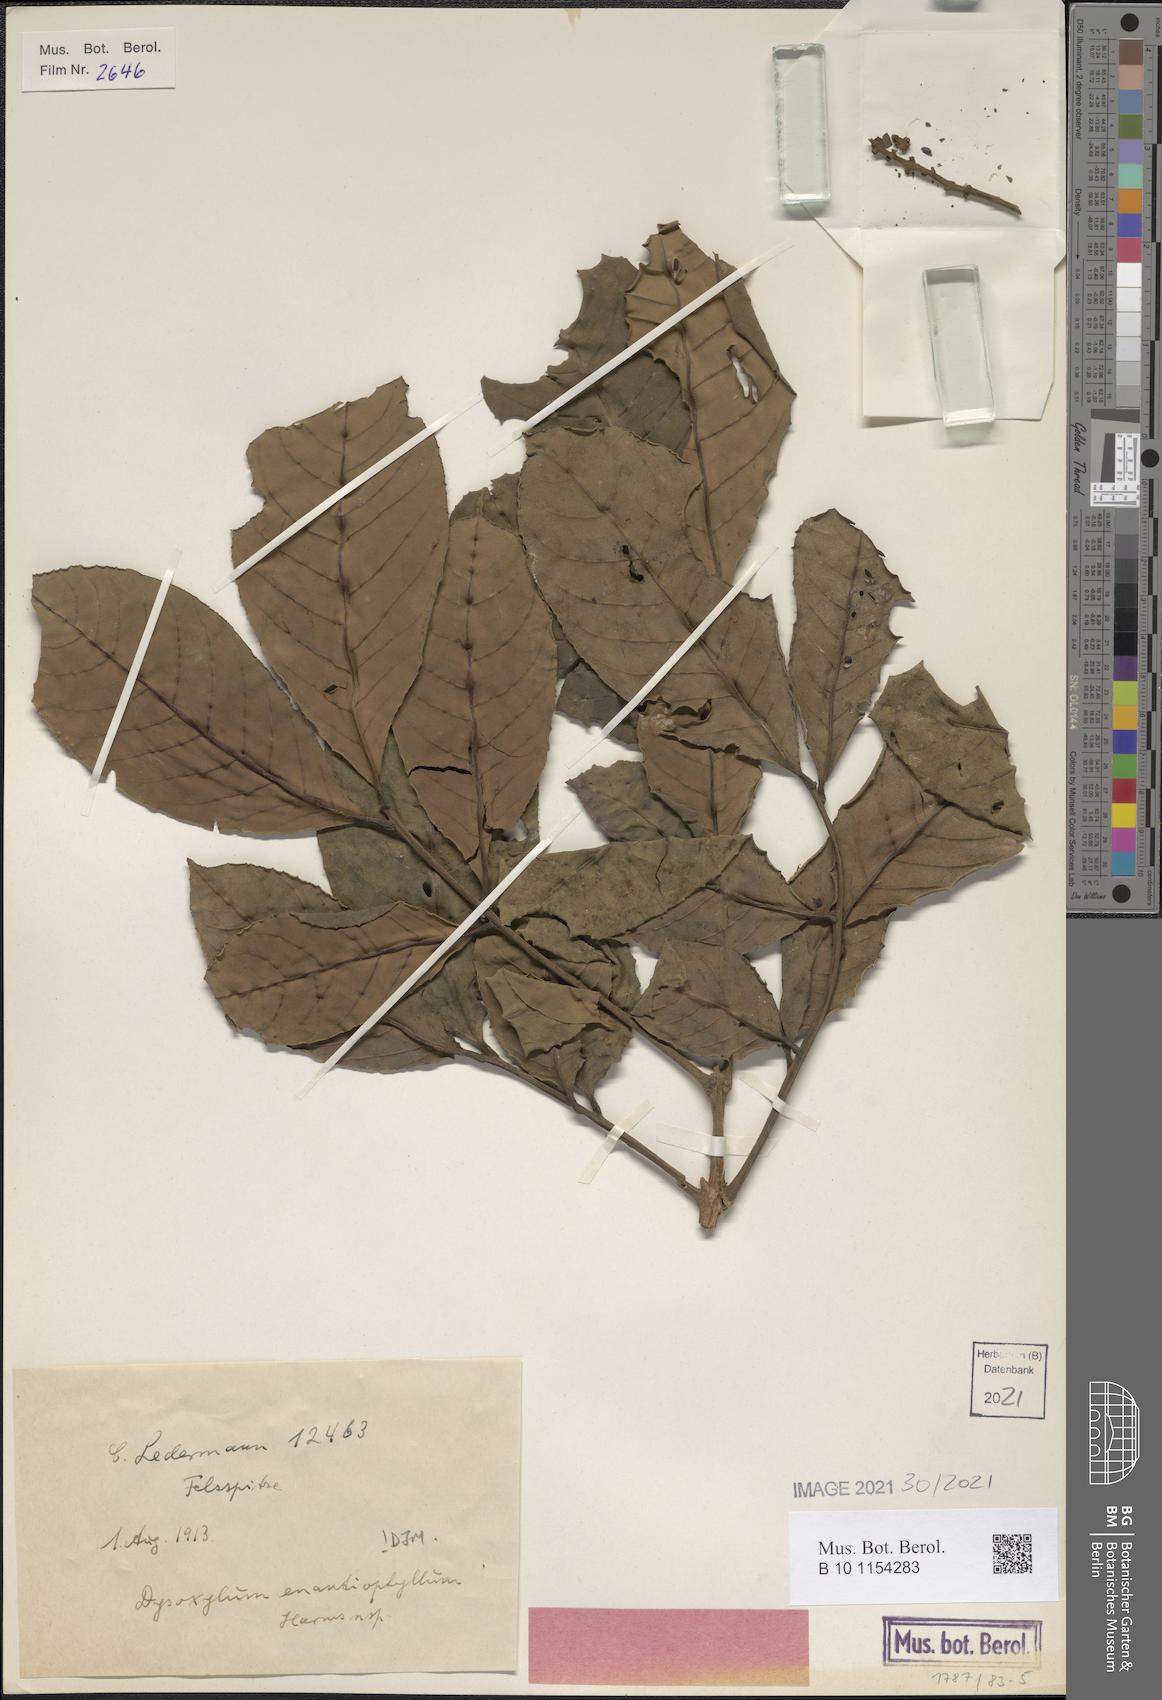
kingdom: Plantae
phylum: Tracheophyta
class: Magnoliopsida
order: Sapindales
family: Meliaceae
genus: Dysoxylum
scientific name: Dysoxylum enantiophyllum
